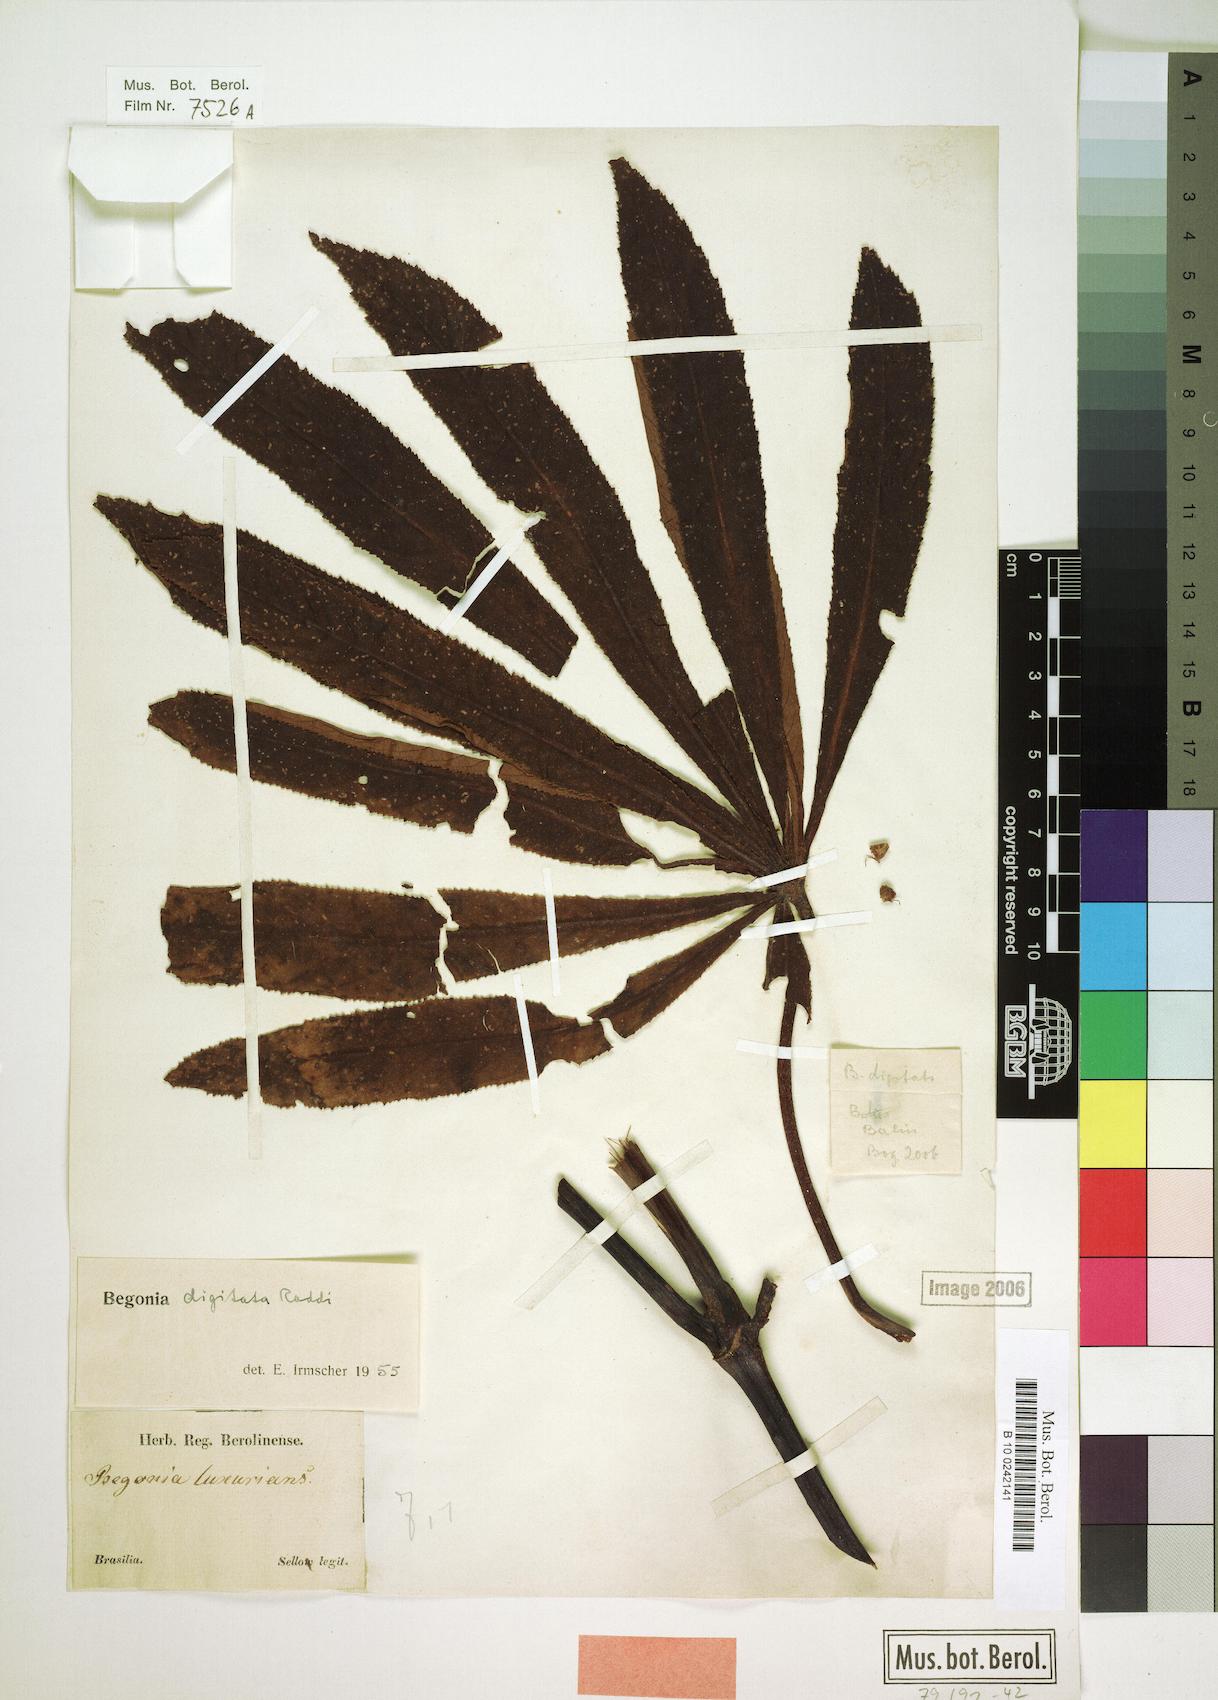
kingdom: Plantae
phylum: Tracheophyta
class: Magnoliopsida
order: Cucurbitales
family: Begoniaceae
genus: Begonia
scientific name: Begonia digitata
